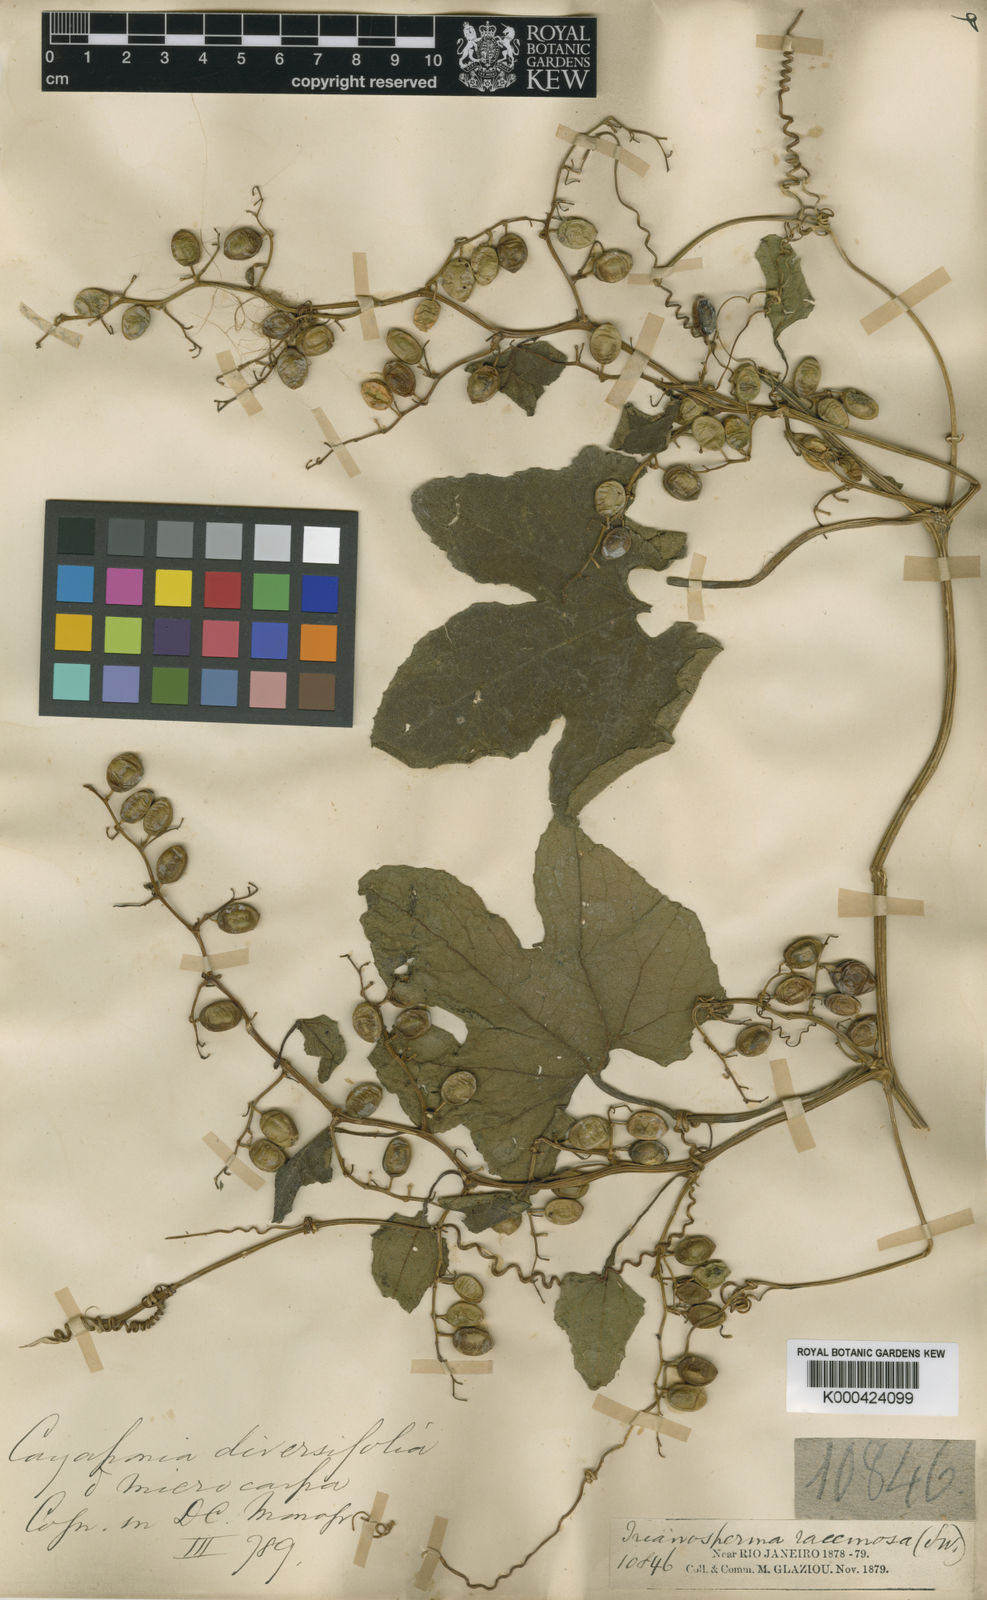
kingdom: Plantae
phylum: Tracheophyta
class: Magnoliopsida
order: Cucurbitales
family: Cucurbitaceae
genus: Cayaponia
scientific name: Cayaponia diversifolia
